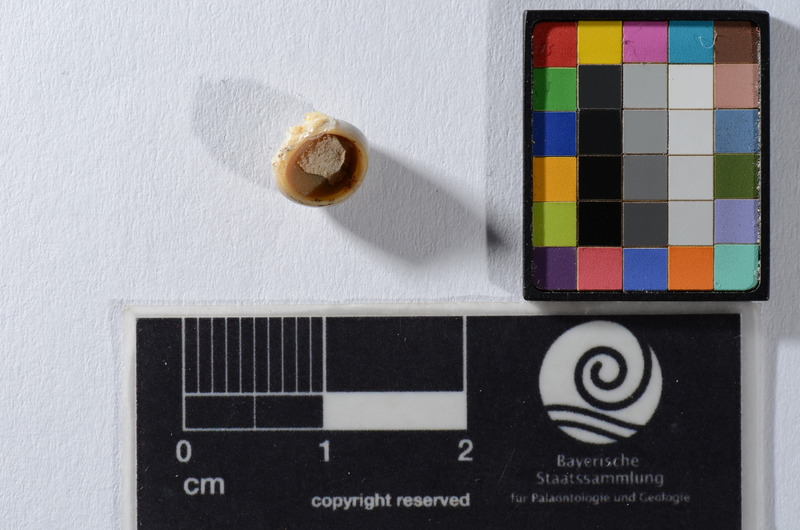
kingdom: Animalia
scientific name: Animalia
